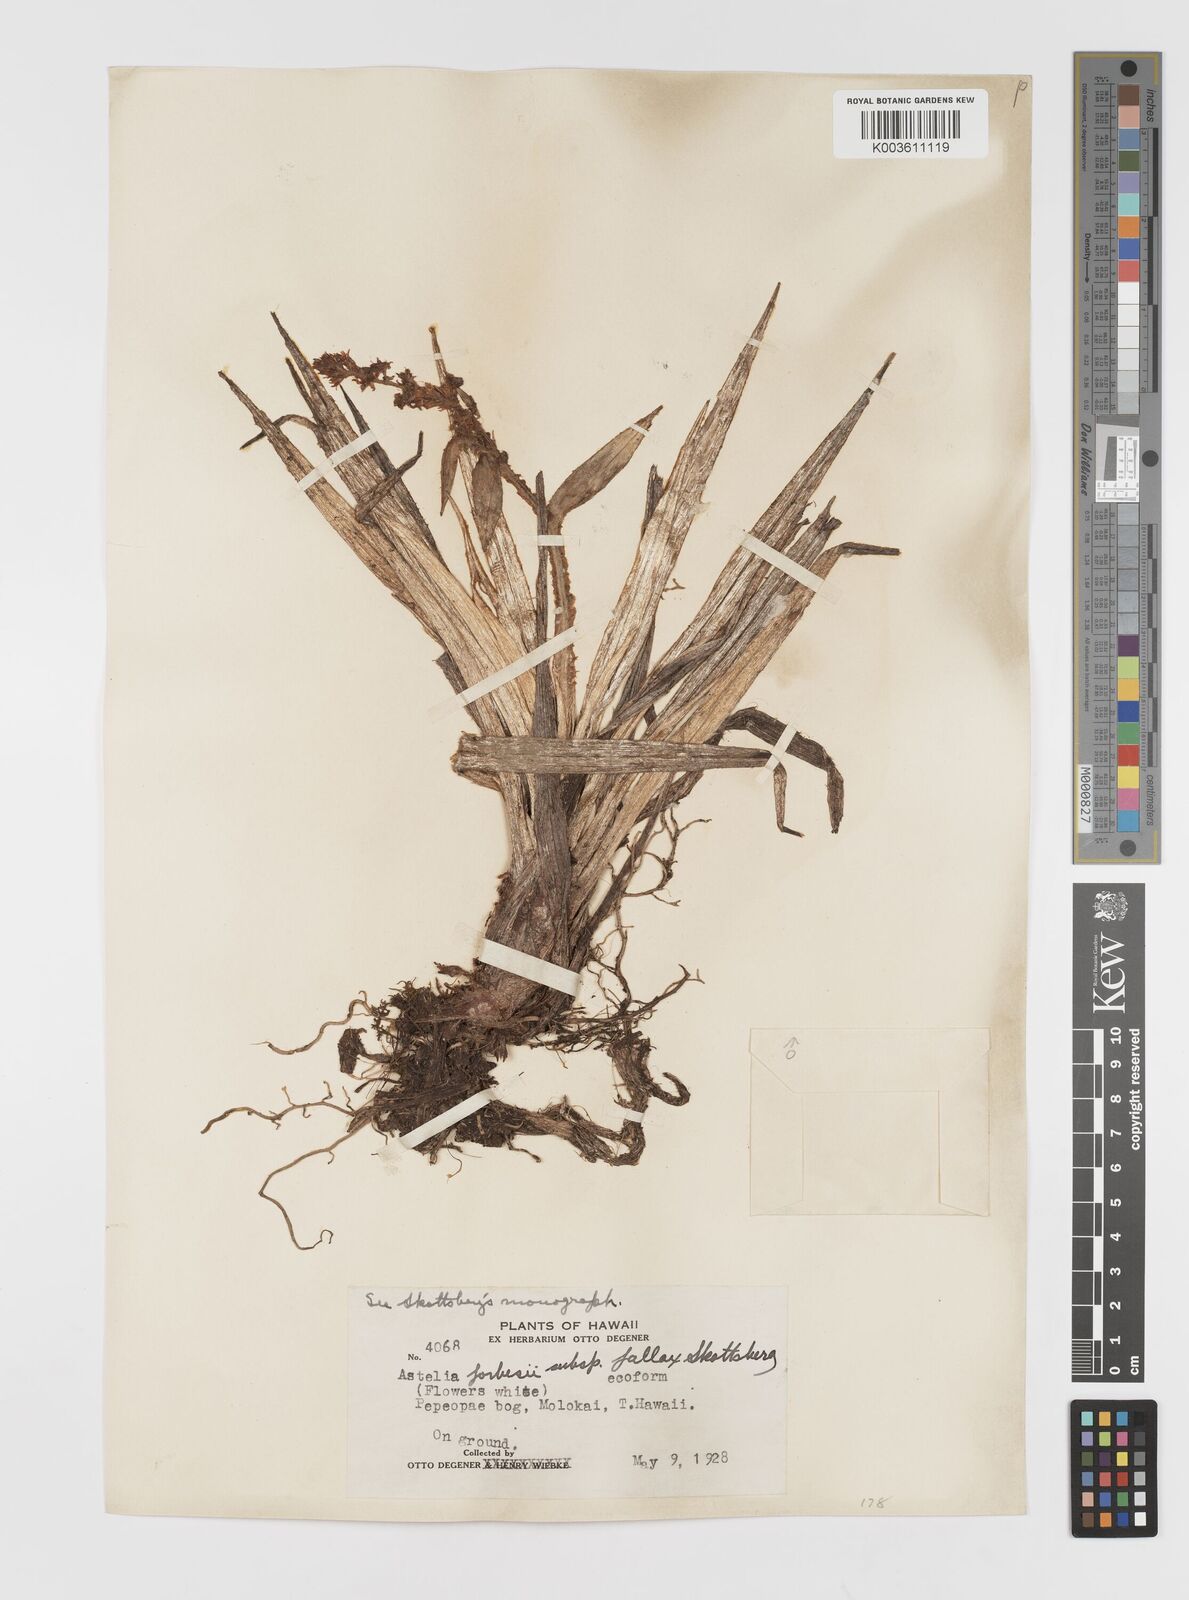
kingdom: Plantae
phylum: Tracheophyta
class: Liliopsida
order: Asparagales
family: Asteliaceae
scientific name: Asteliaceae
